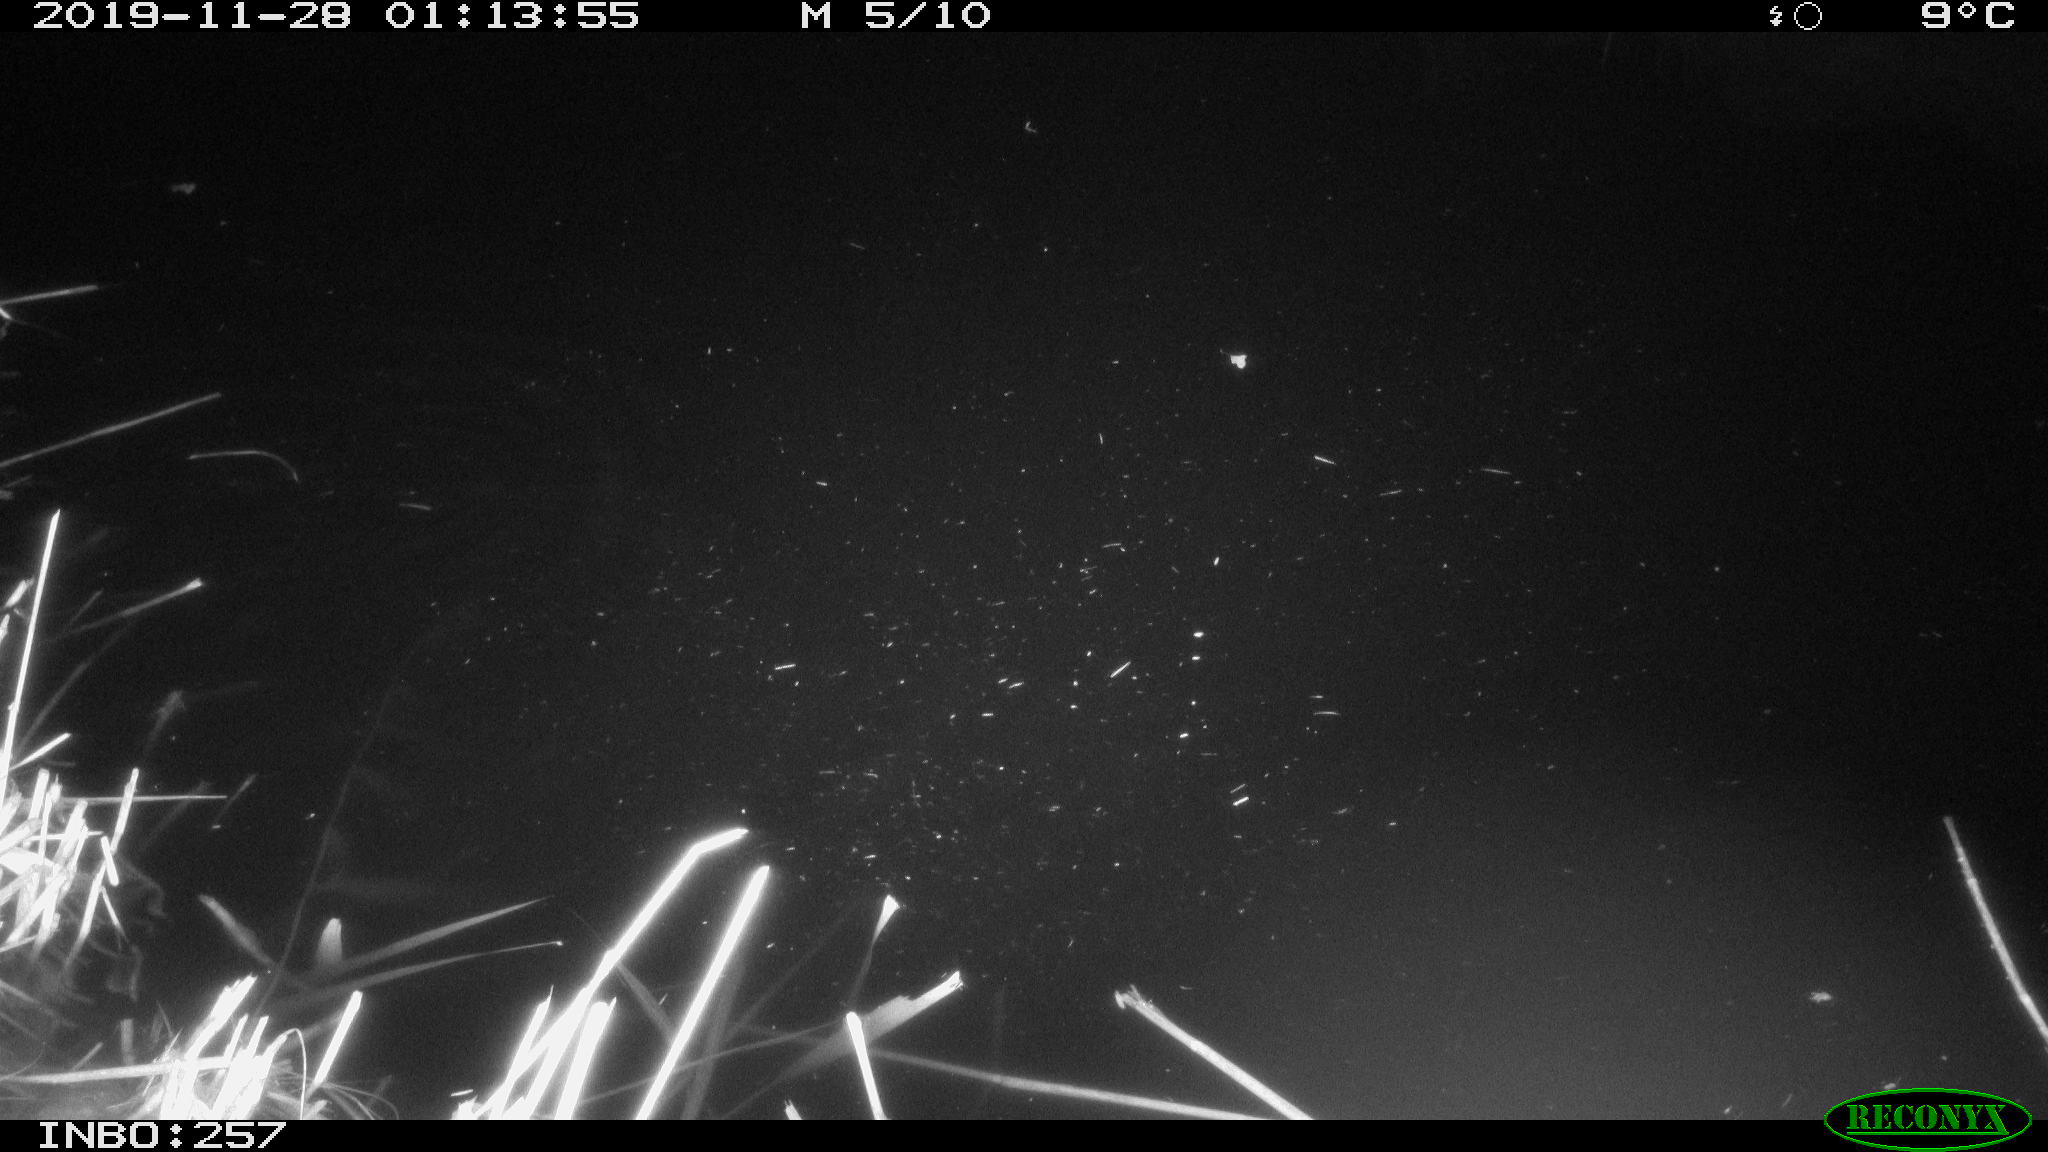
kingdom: Animalia
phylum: Chordata
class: Mammalia
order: Rodentia
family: Muridae
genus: Rattus
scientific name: Rattus norvegicus
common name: Brown rat
